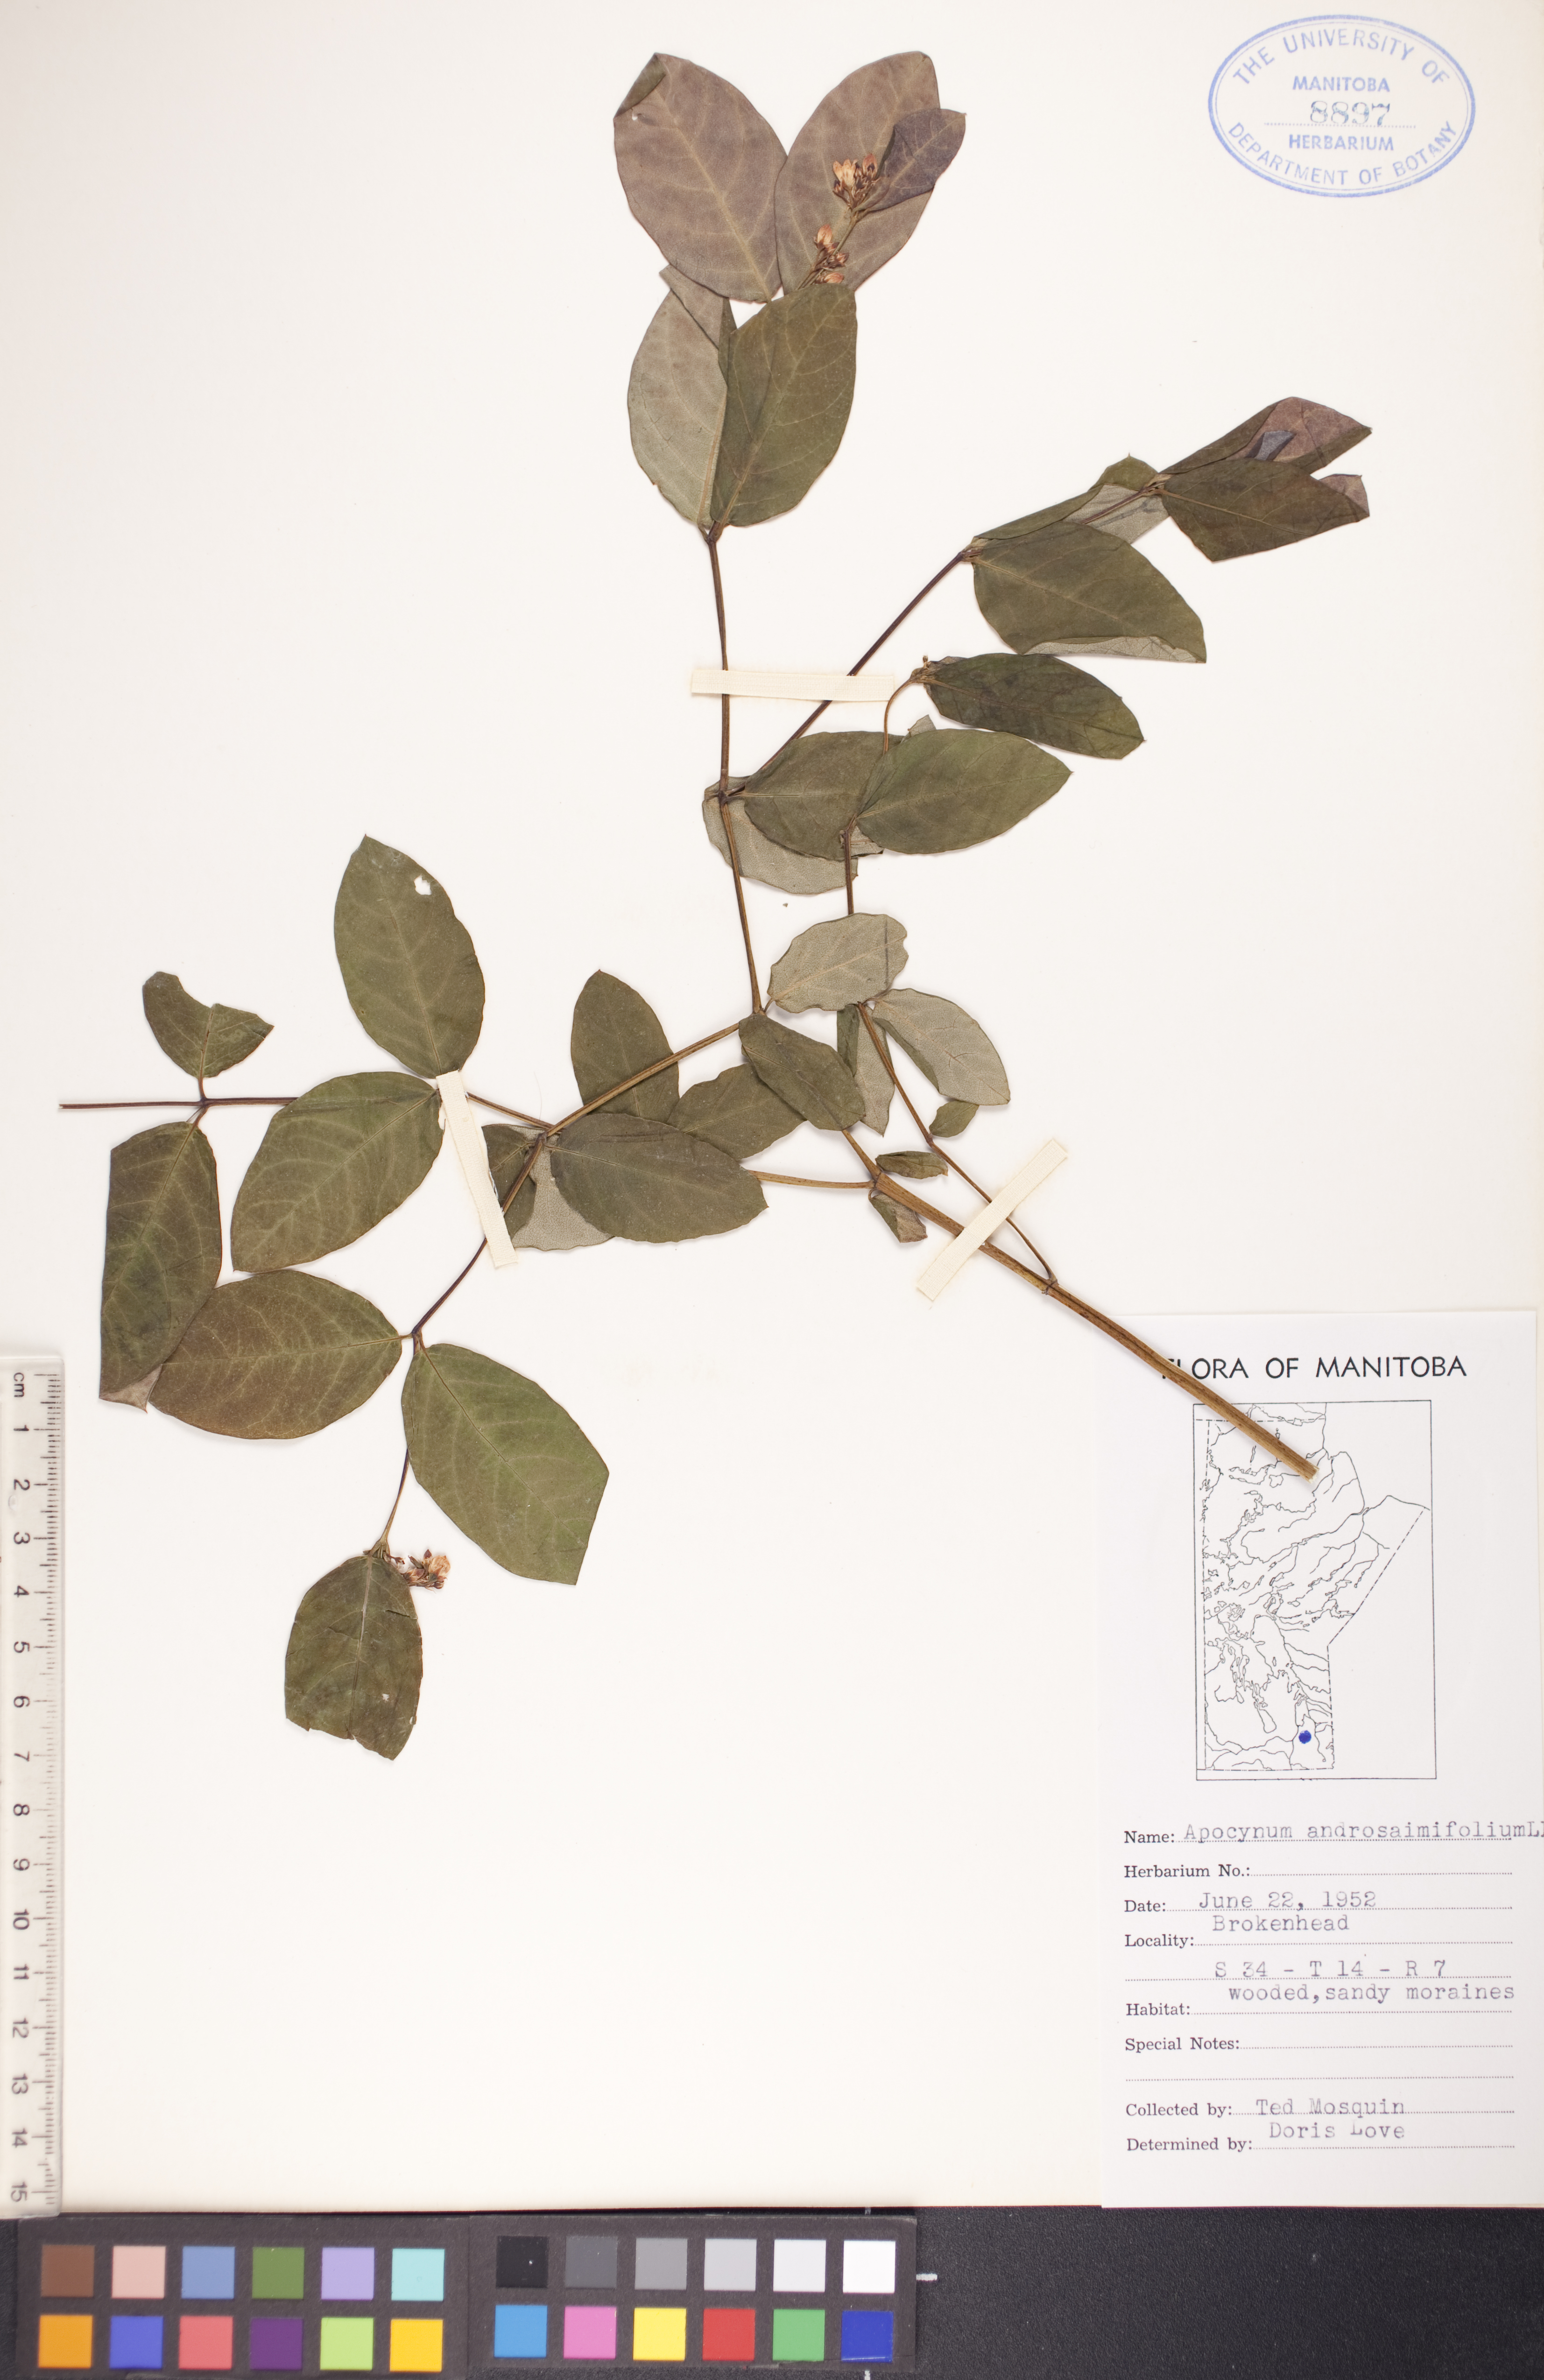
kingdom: Plantae
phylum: Tracheophyta
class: Magnoliopsida
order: Gentianales
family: Apocynaceae
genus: Apocynum
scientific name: Apocynum androsaemifolium
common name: Spreading dogbane
